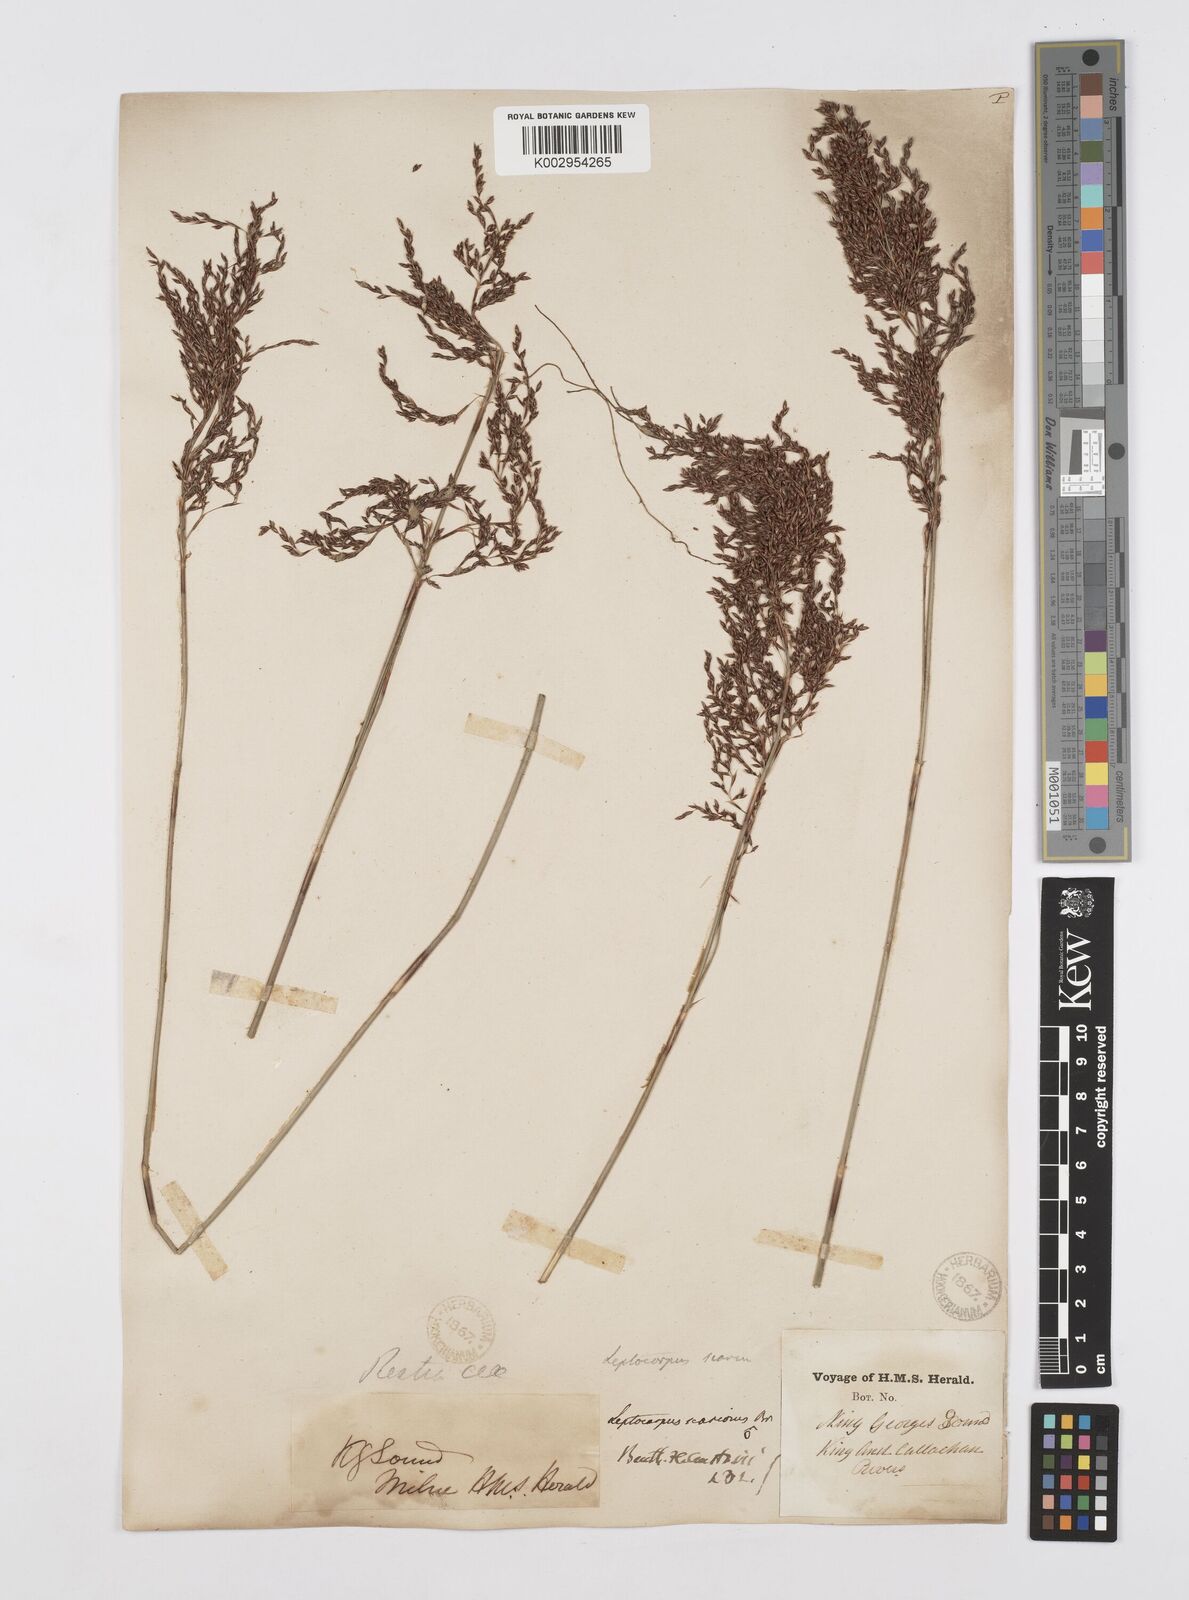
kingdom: Plantae
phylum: Tracheophyta
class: Liliopsida
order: Poales
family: Restionaceae
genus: Leptocarpus
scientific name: Leptocarpus scariosus
